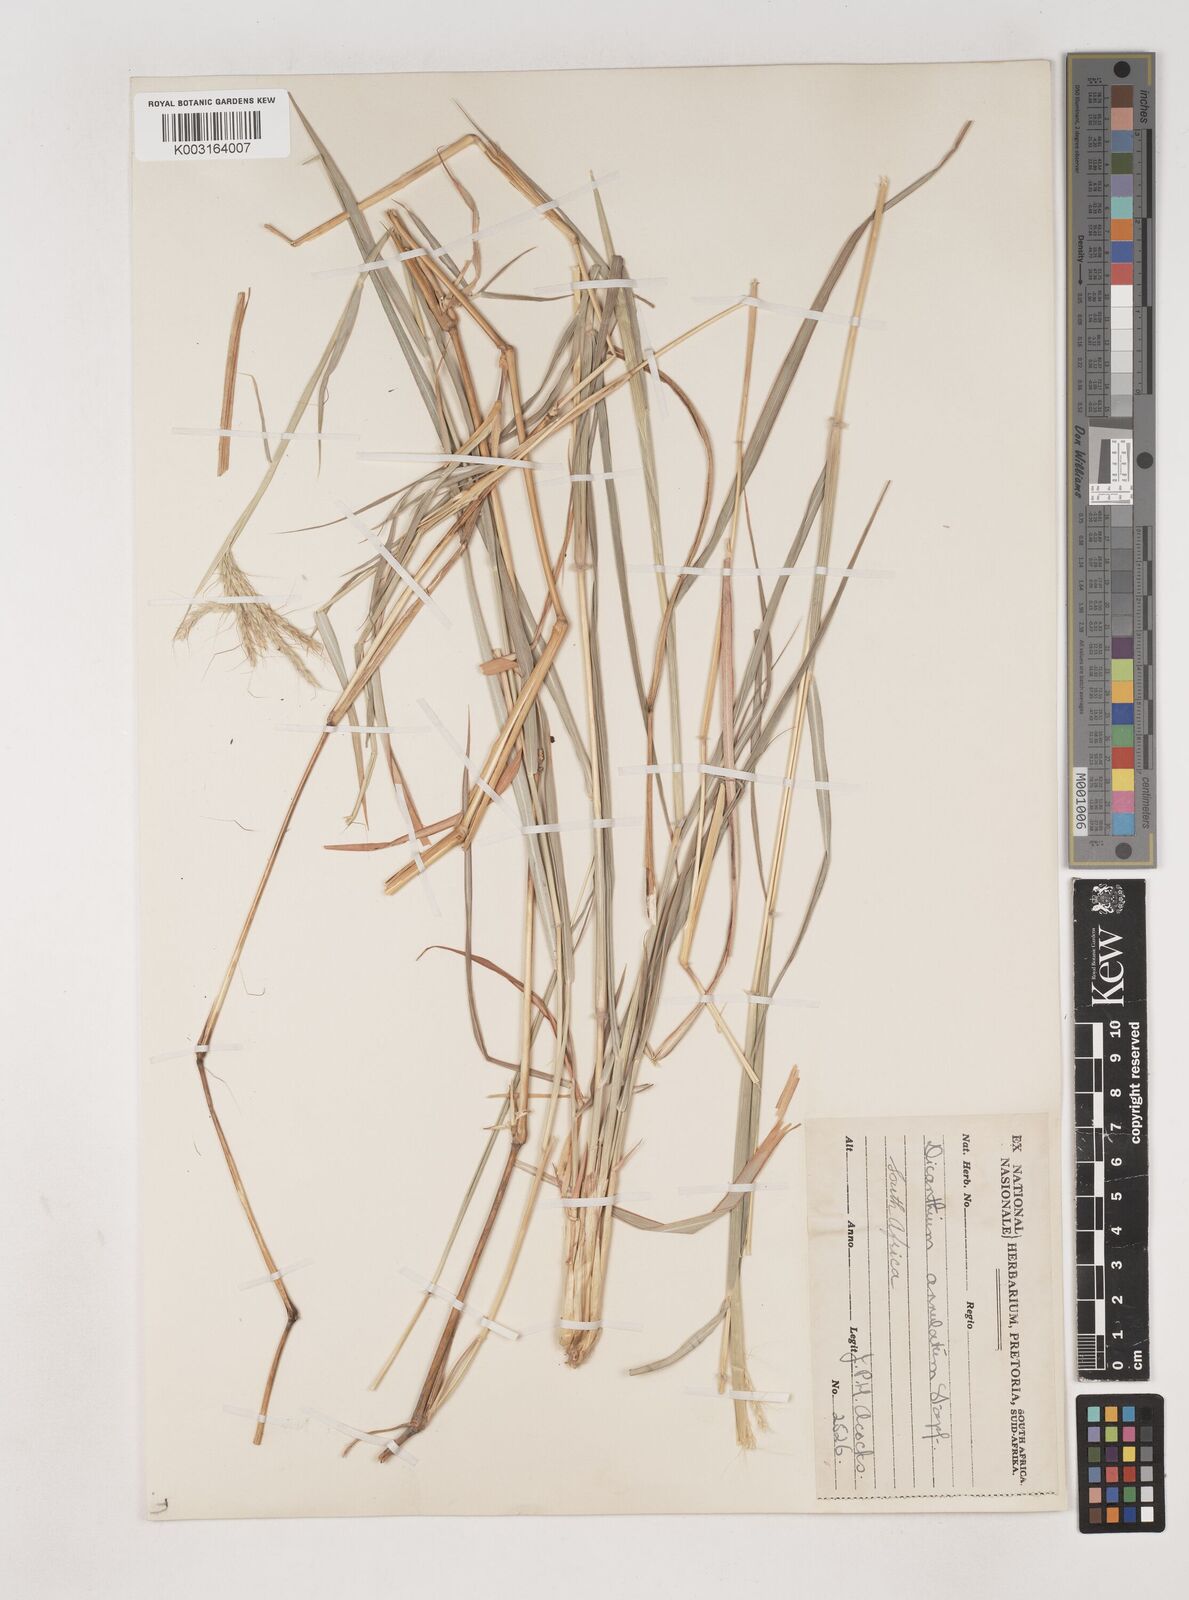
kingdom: Plantae
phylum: Tracheophyta
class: Liliopsida
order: Poales
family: Poaceae
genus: Dichanthium
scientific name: Dichanthium annulatum
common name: Kleberg's bluestem
